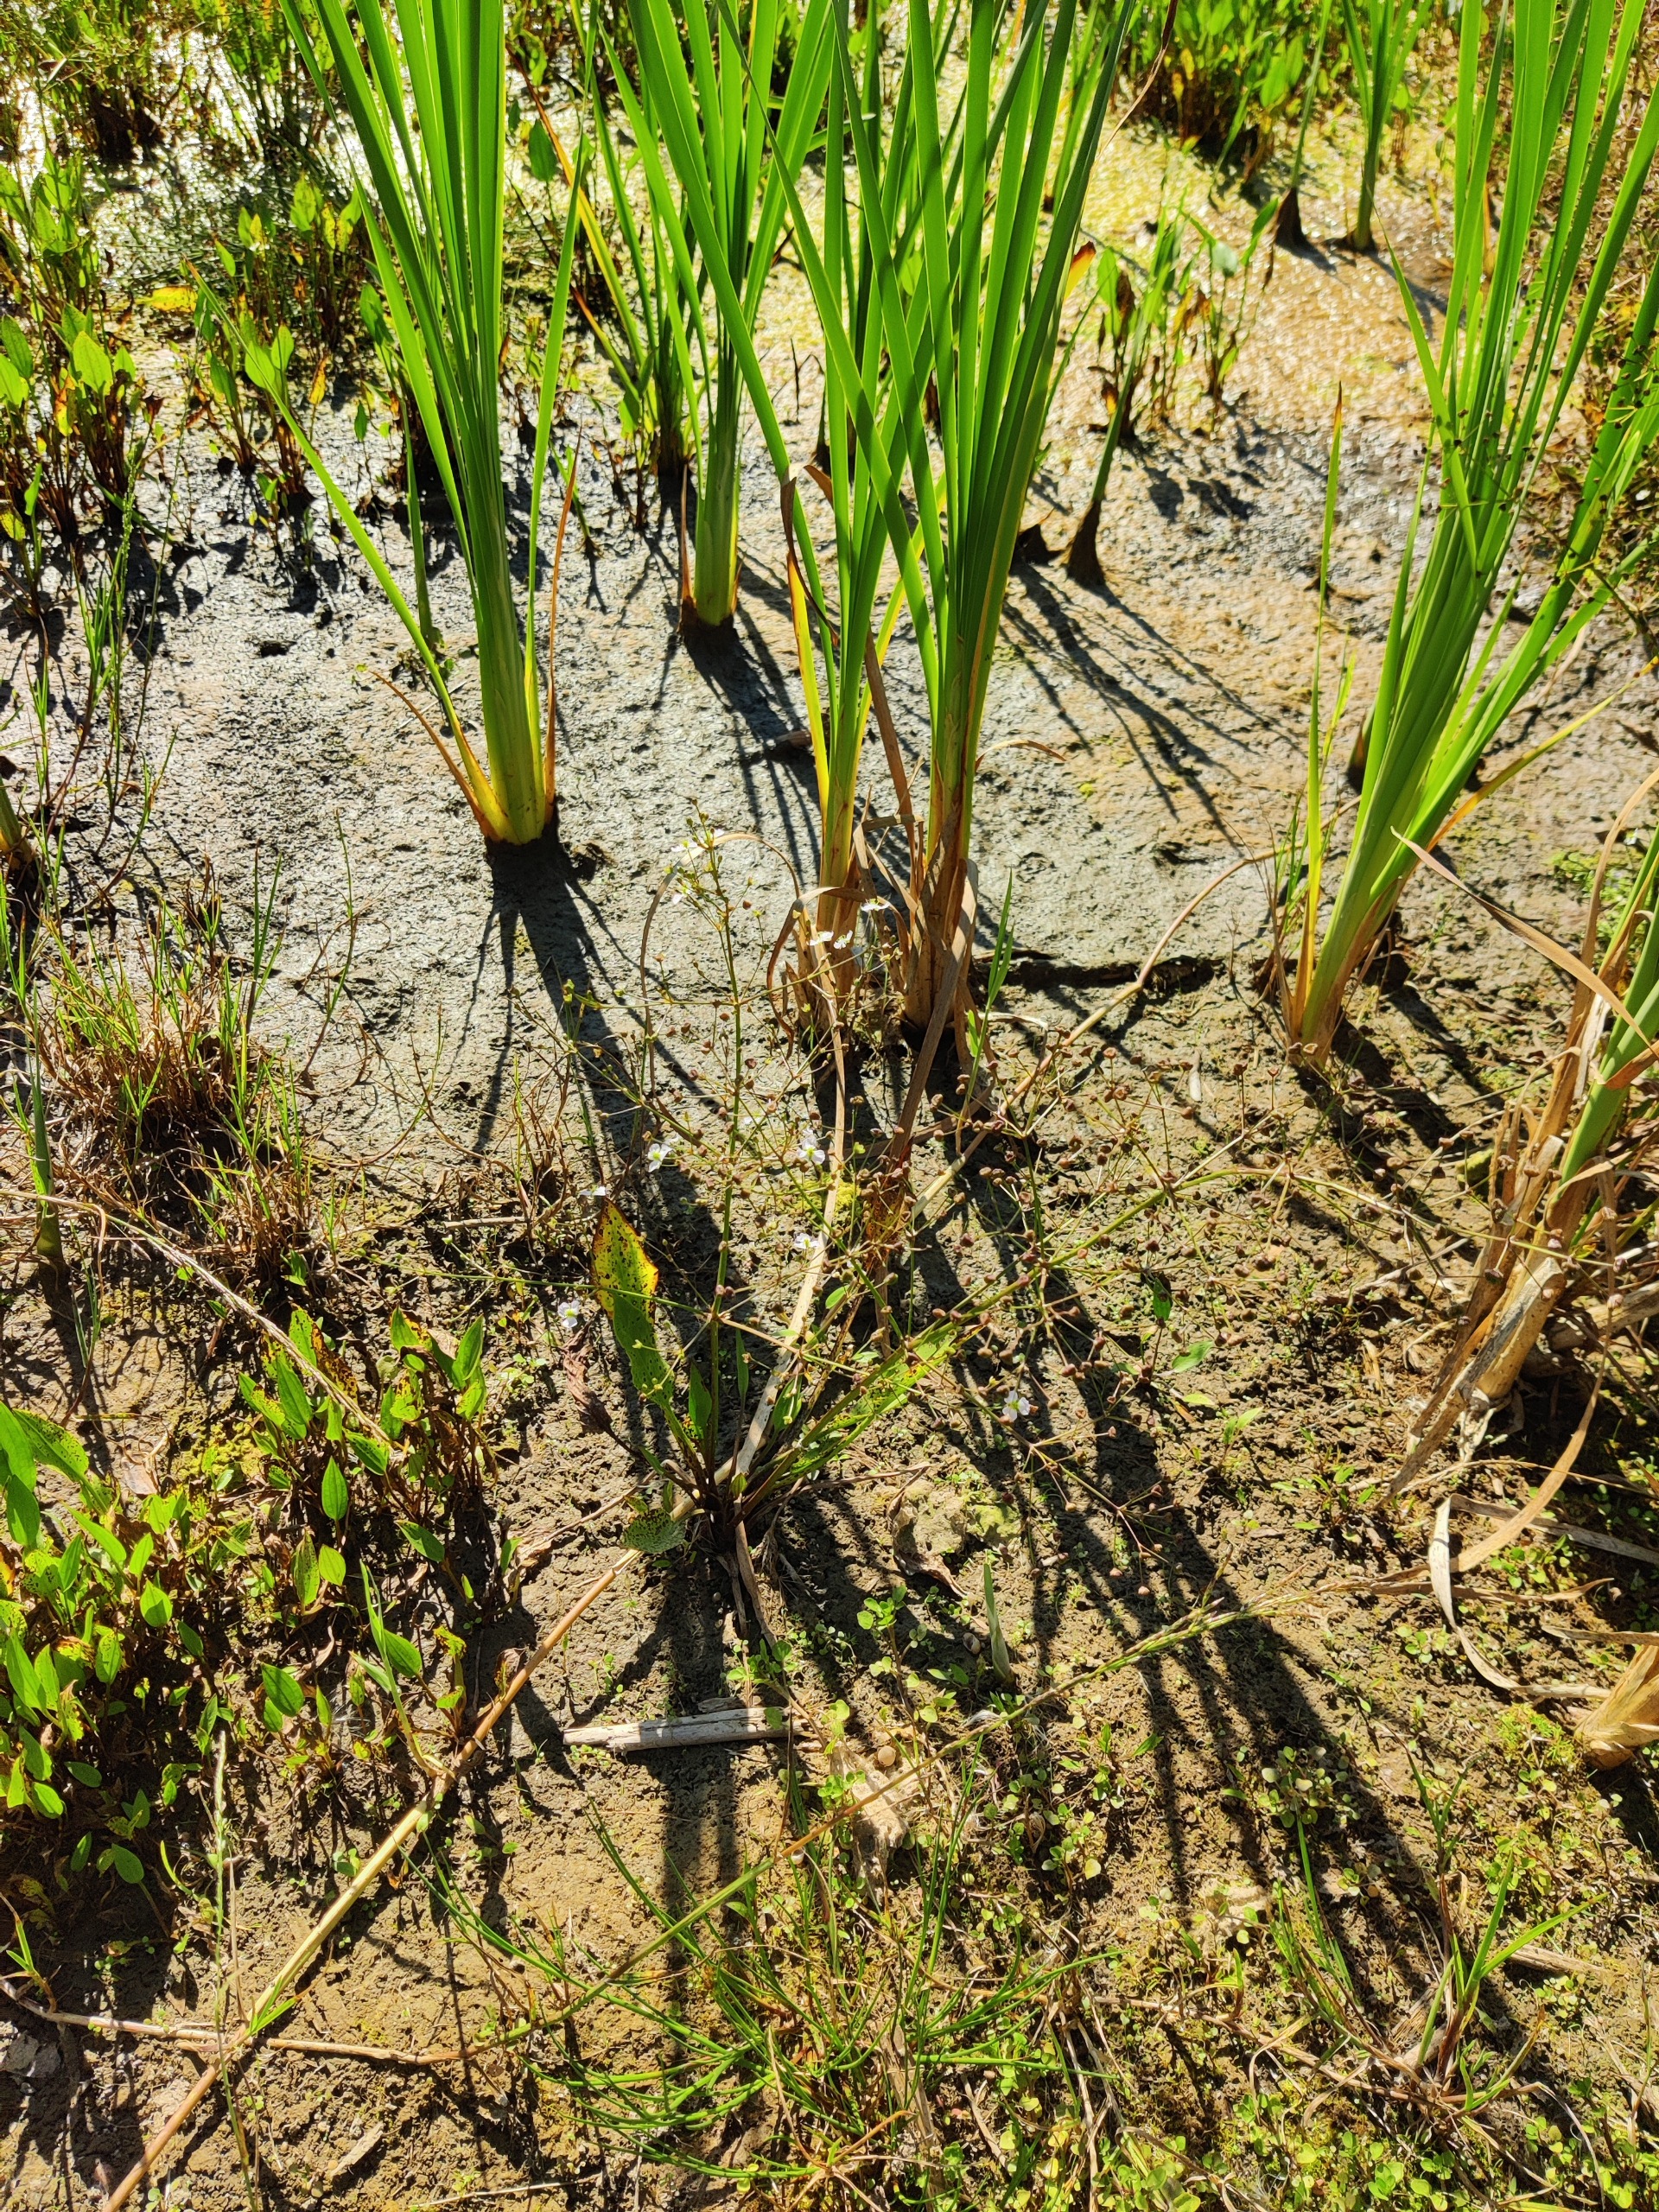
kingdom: Plantae
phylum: Tracheophyta
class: Liliopsida
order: Alismatales
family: Alismataceae
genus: Alisma
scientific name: Alisma plantago-aquatica
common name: Vejbred-skeblad
